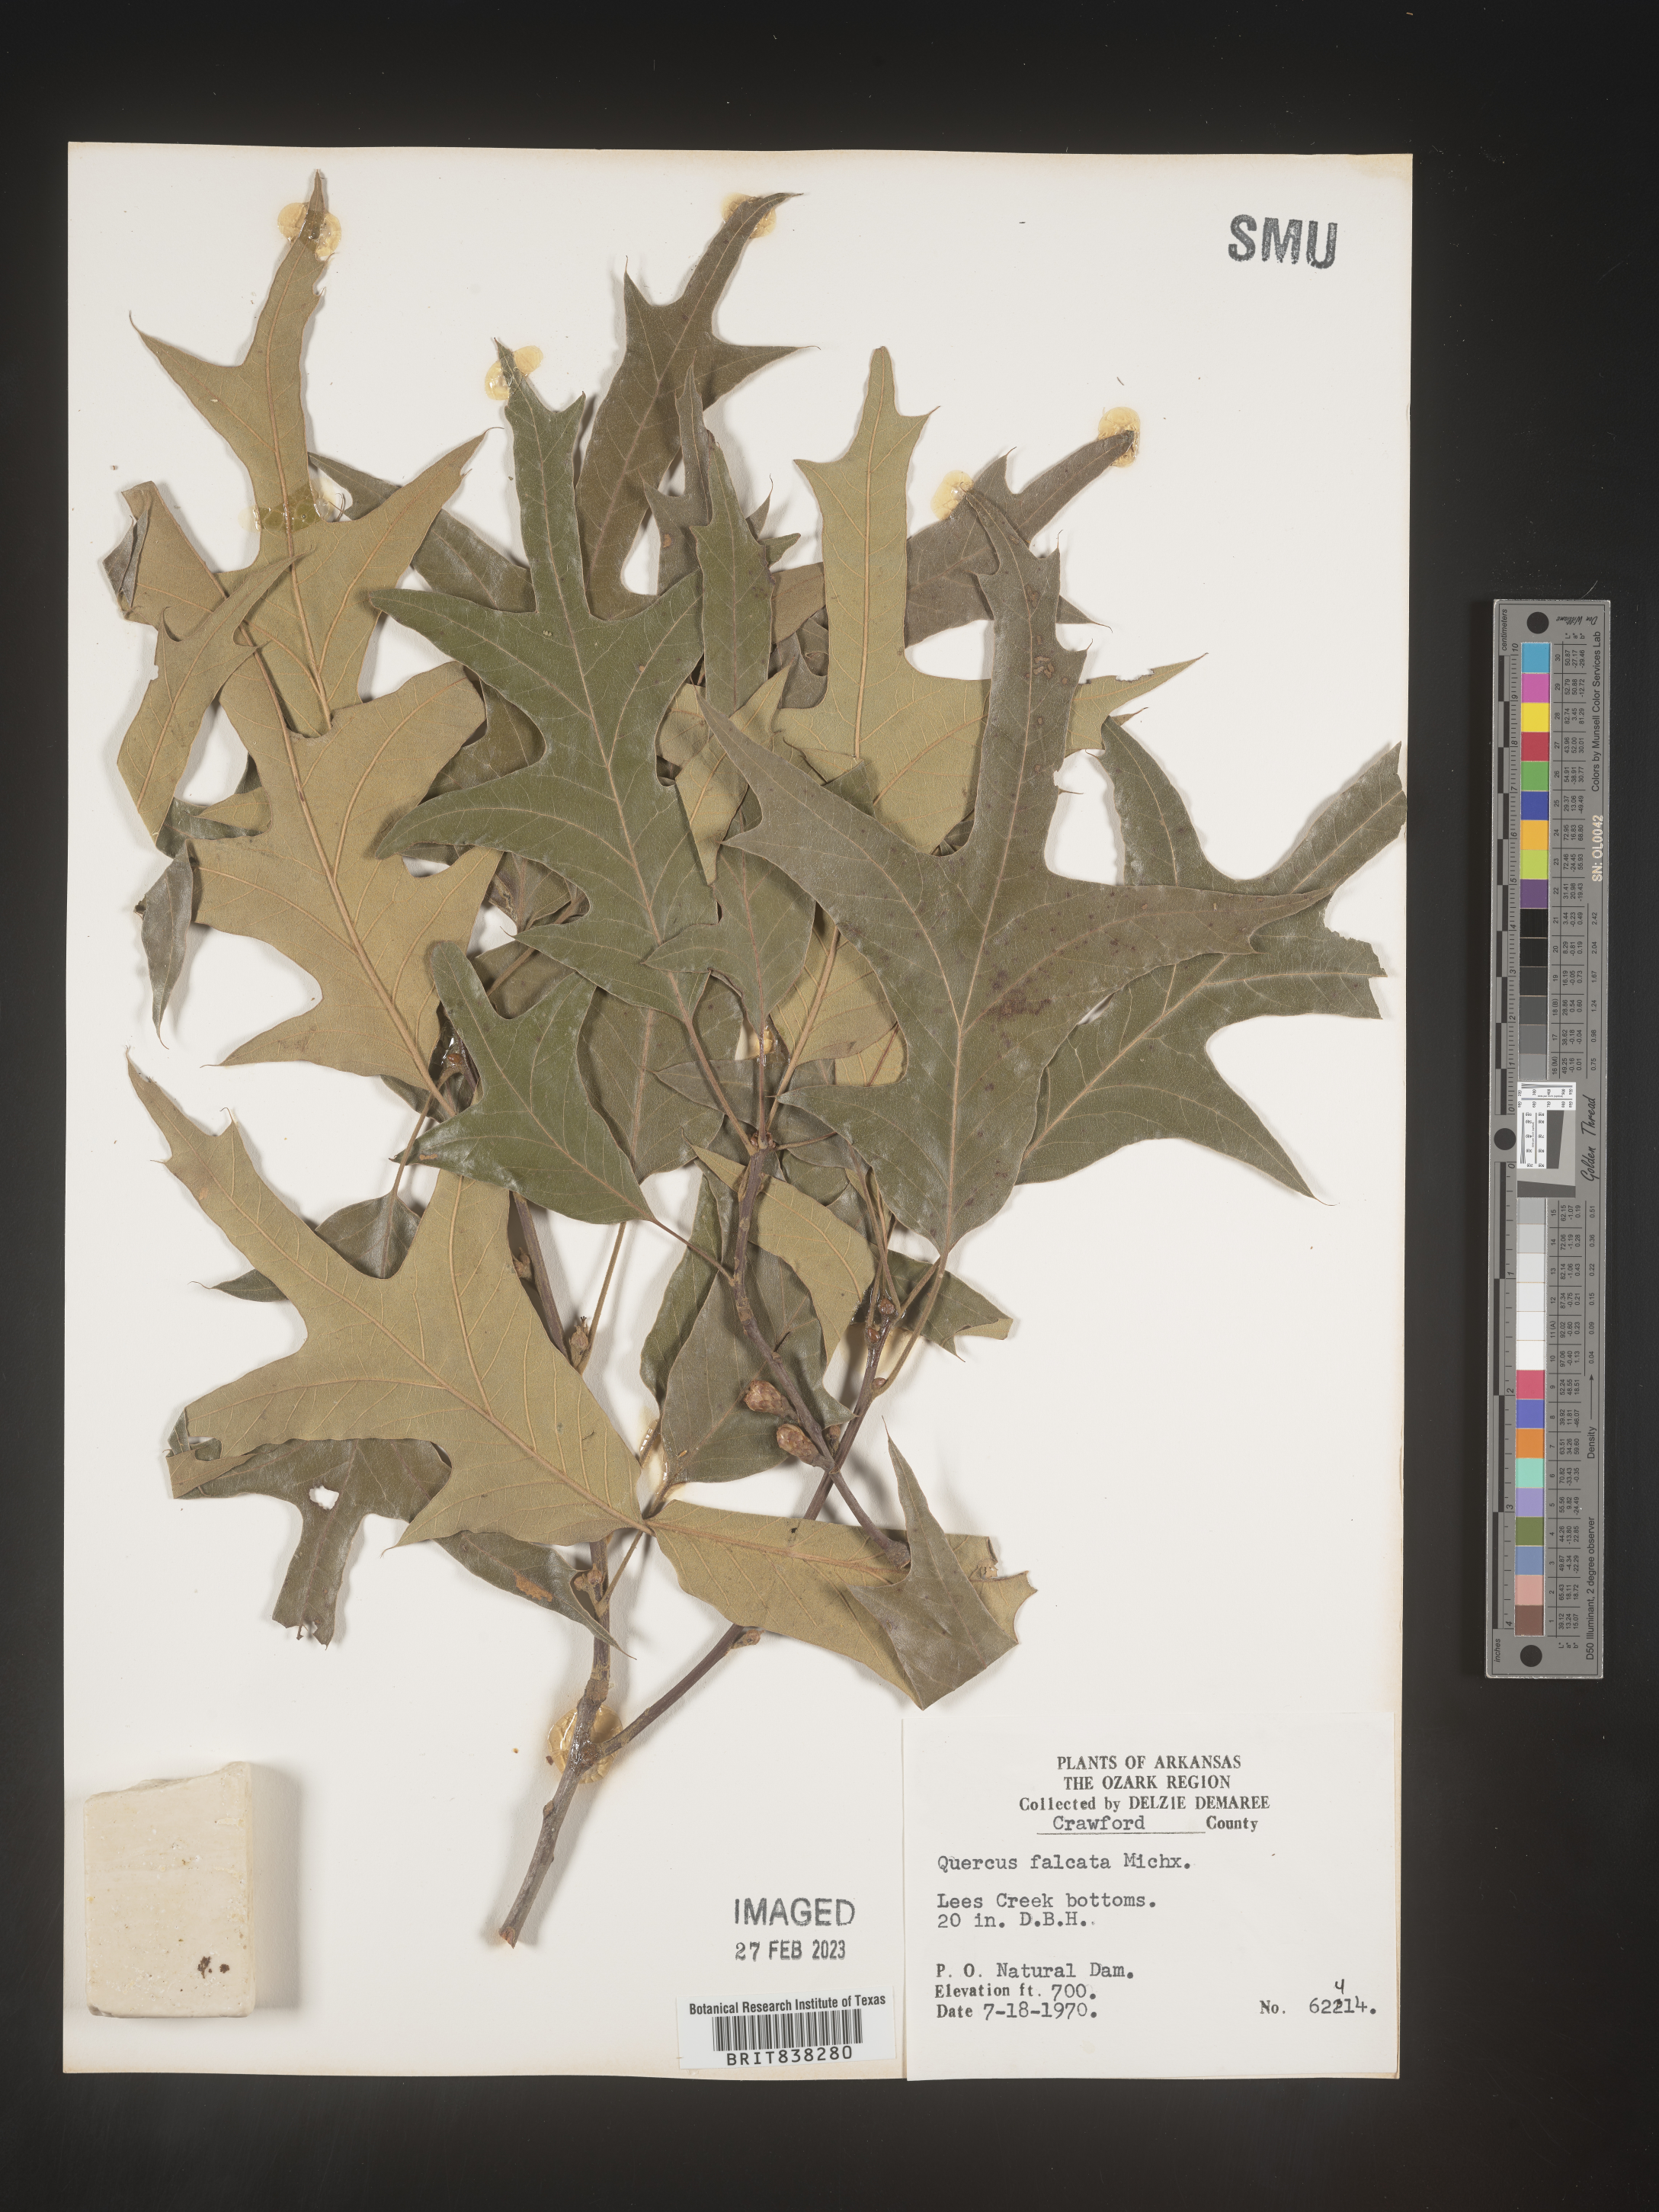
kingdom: Plantae
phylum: Tracheophyta
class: Magnoliopsida
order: Fagales
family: Fagaceae
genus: Quercus
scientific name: Quercus falcata
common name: Southern red oak
